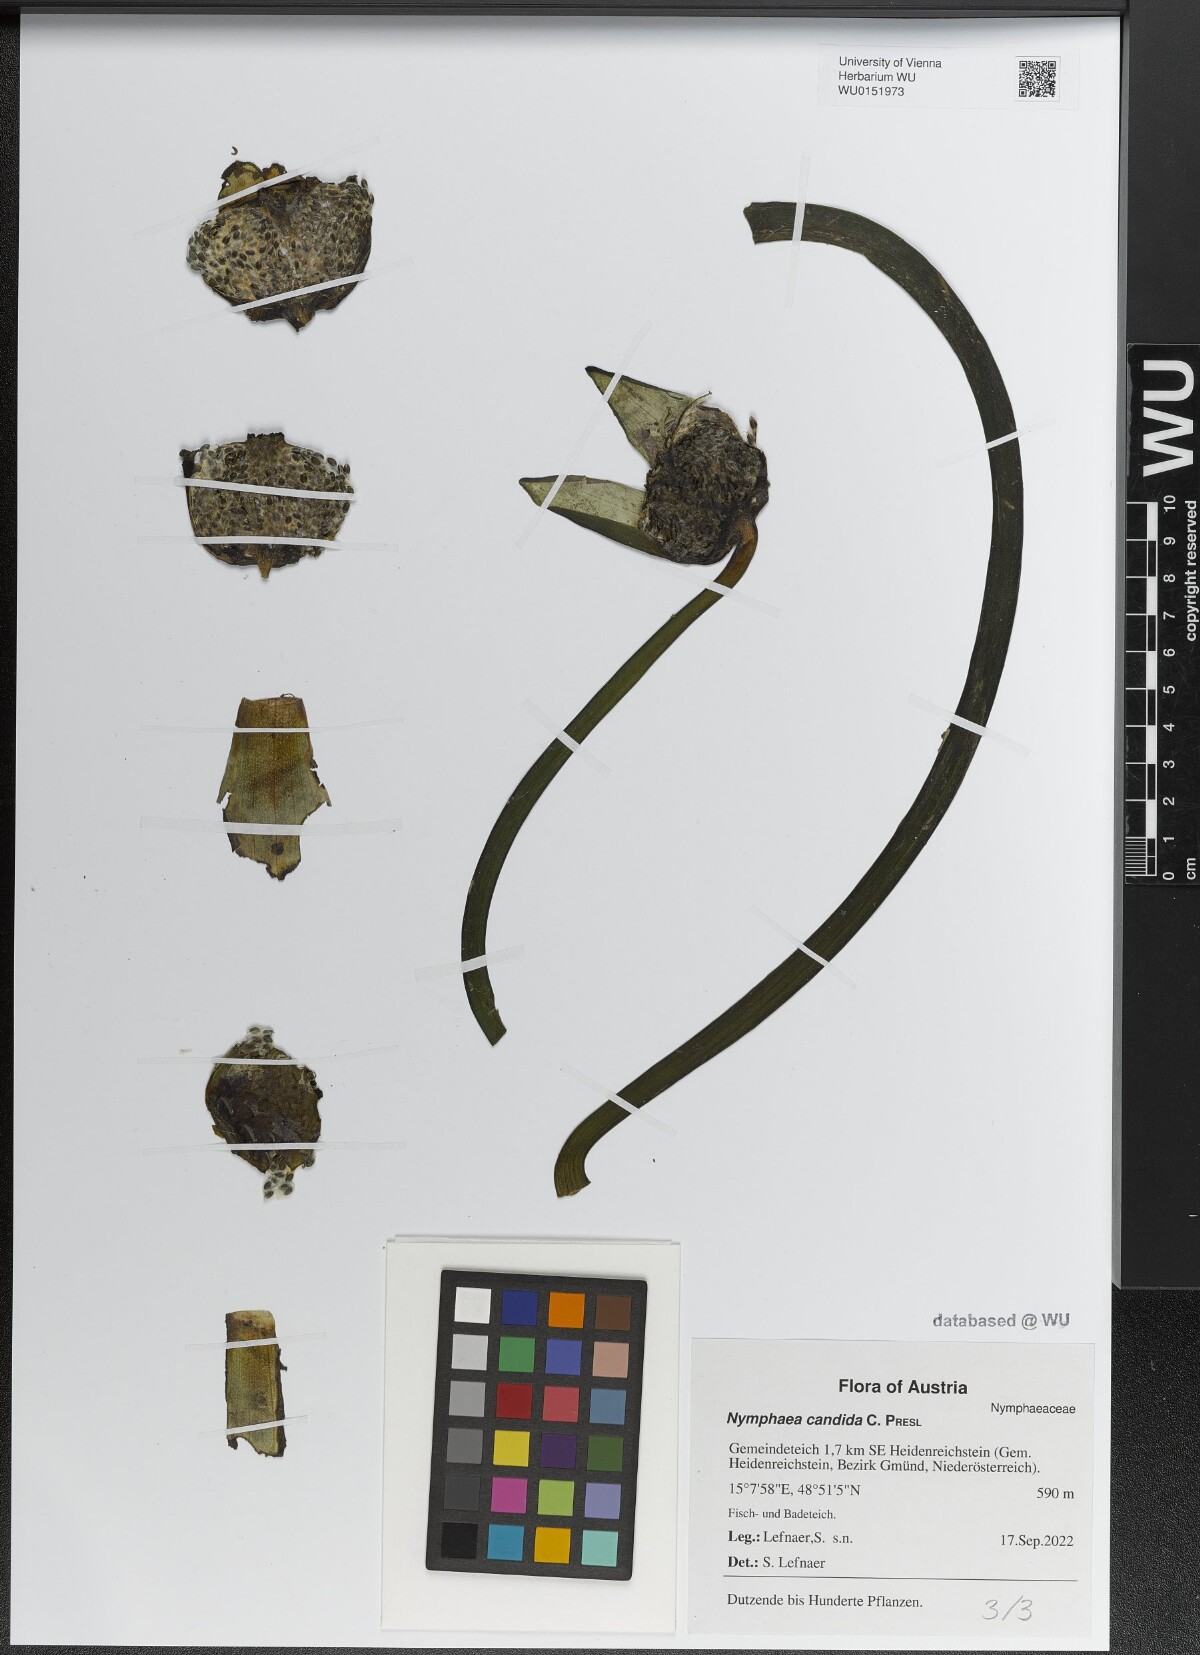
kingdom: Plantae
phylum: Tracheophyta
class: Magnoliopsida
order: Nymphaeales
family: Nymphaeaceae
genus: Nymphaea
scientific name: Nymphaea candida
